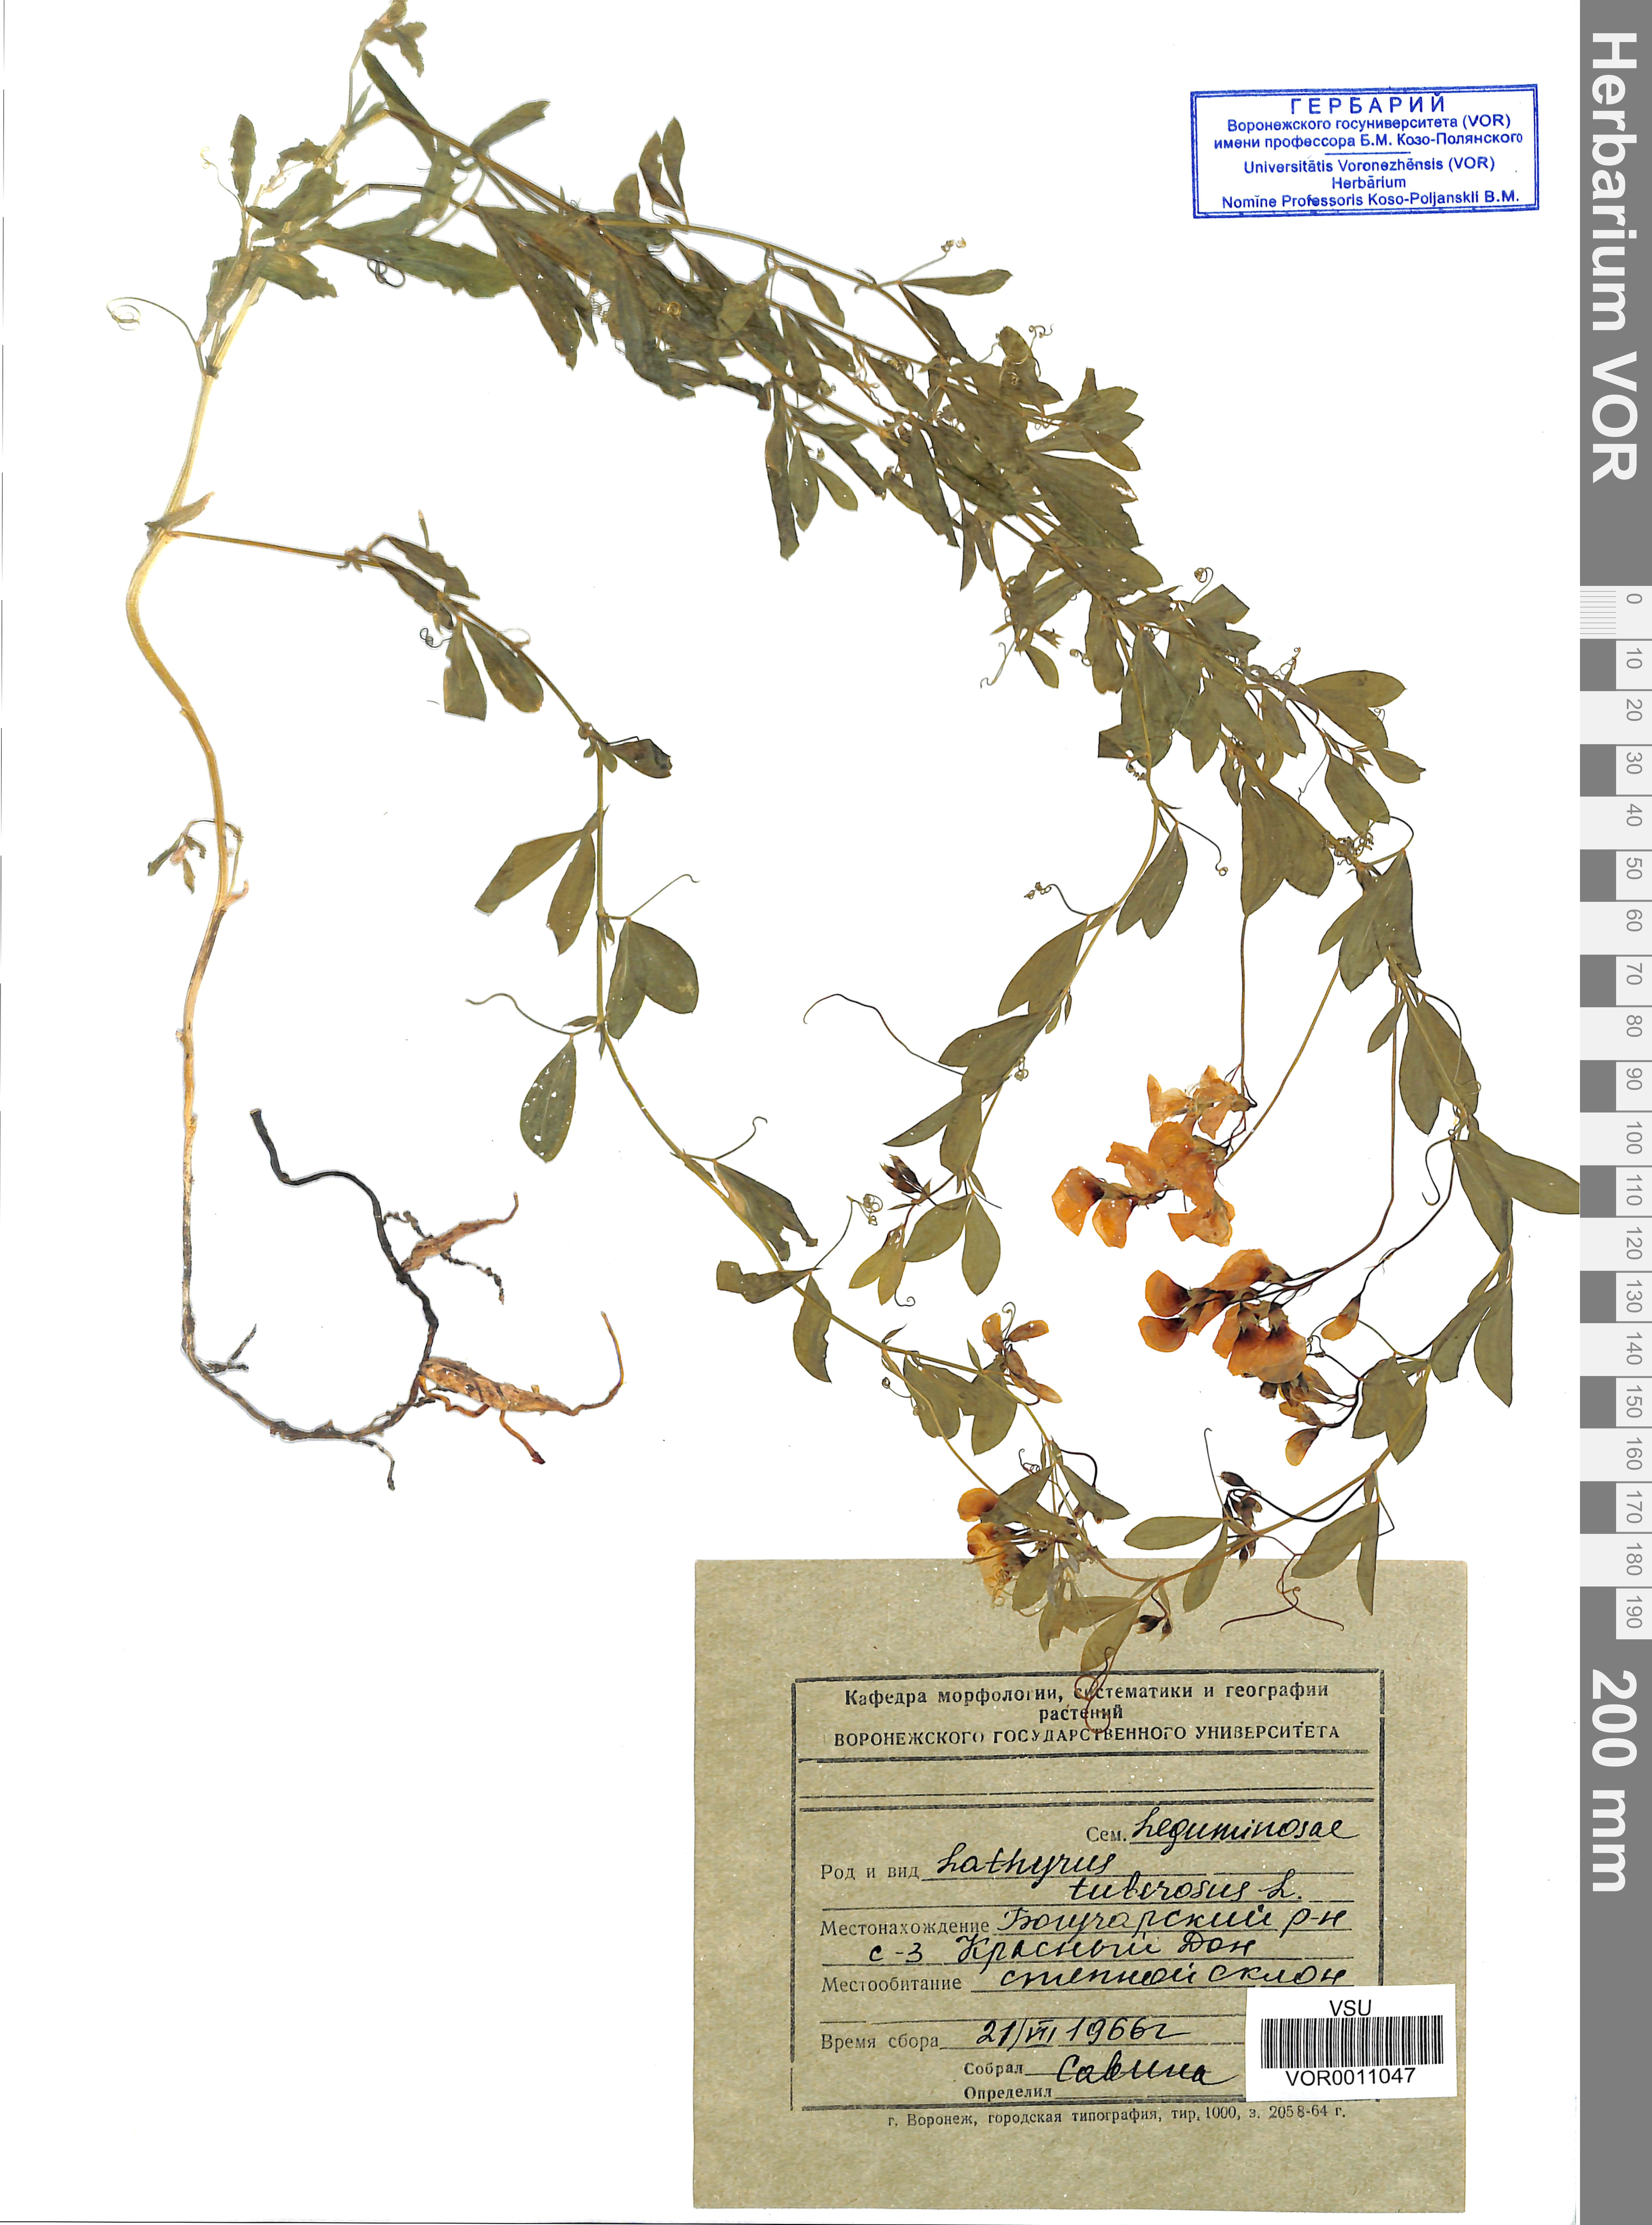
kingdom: Plantae
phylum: Tracheophyta
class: Magnoliopsida
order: Fabales
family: Fabaceae
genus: Lathyrus
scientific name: Lathyrus tuberosus
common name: Tuberous pea
